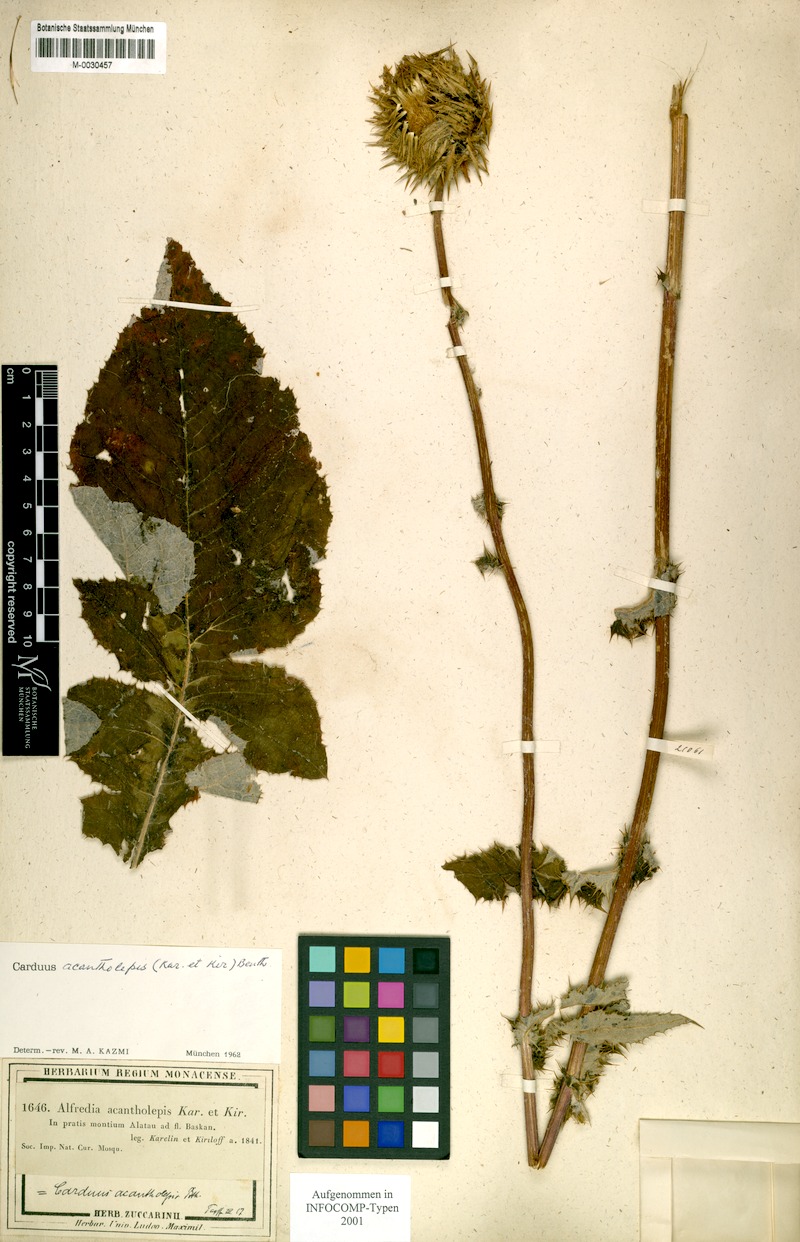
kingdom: Plantae
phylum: Tracheophyta
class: Magnoliopsida
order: Asterales
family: Asteraceae
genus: Alfredia
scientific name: Alfredia acantholepis
